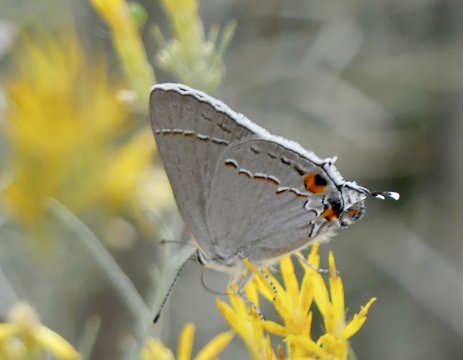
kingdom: Animalia
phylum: Arthropoda
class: Insecta
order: Lepidoptera
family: Lycaenidae
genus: Strymon
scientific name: Strymon melinus
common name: Gray Hairstreak
